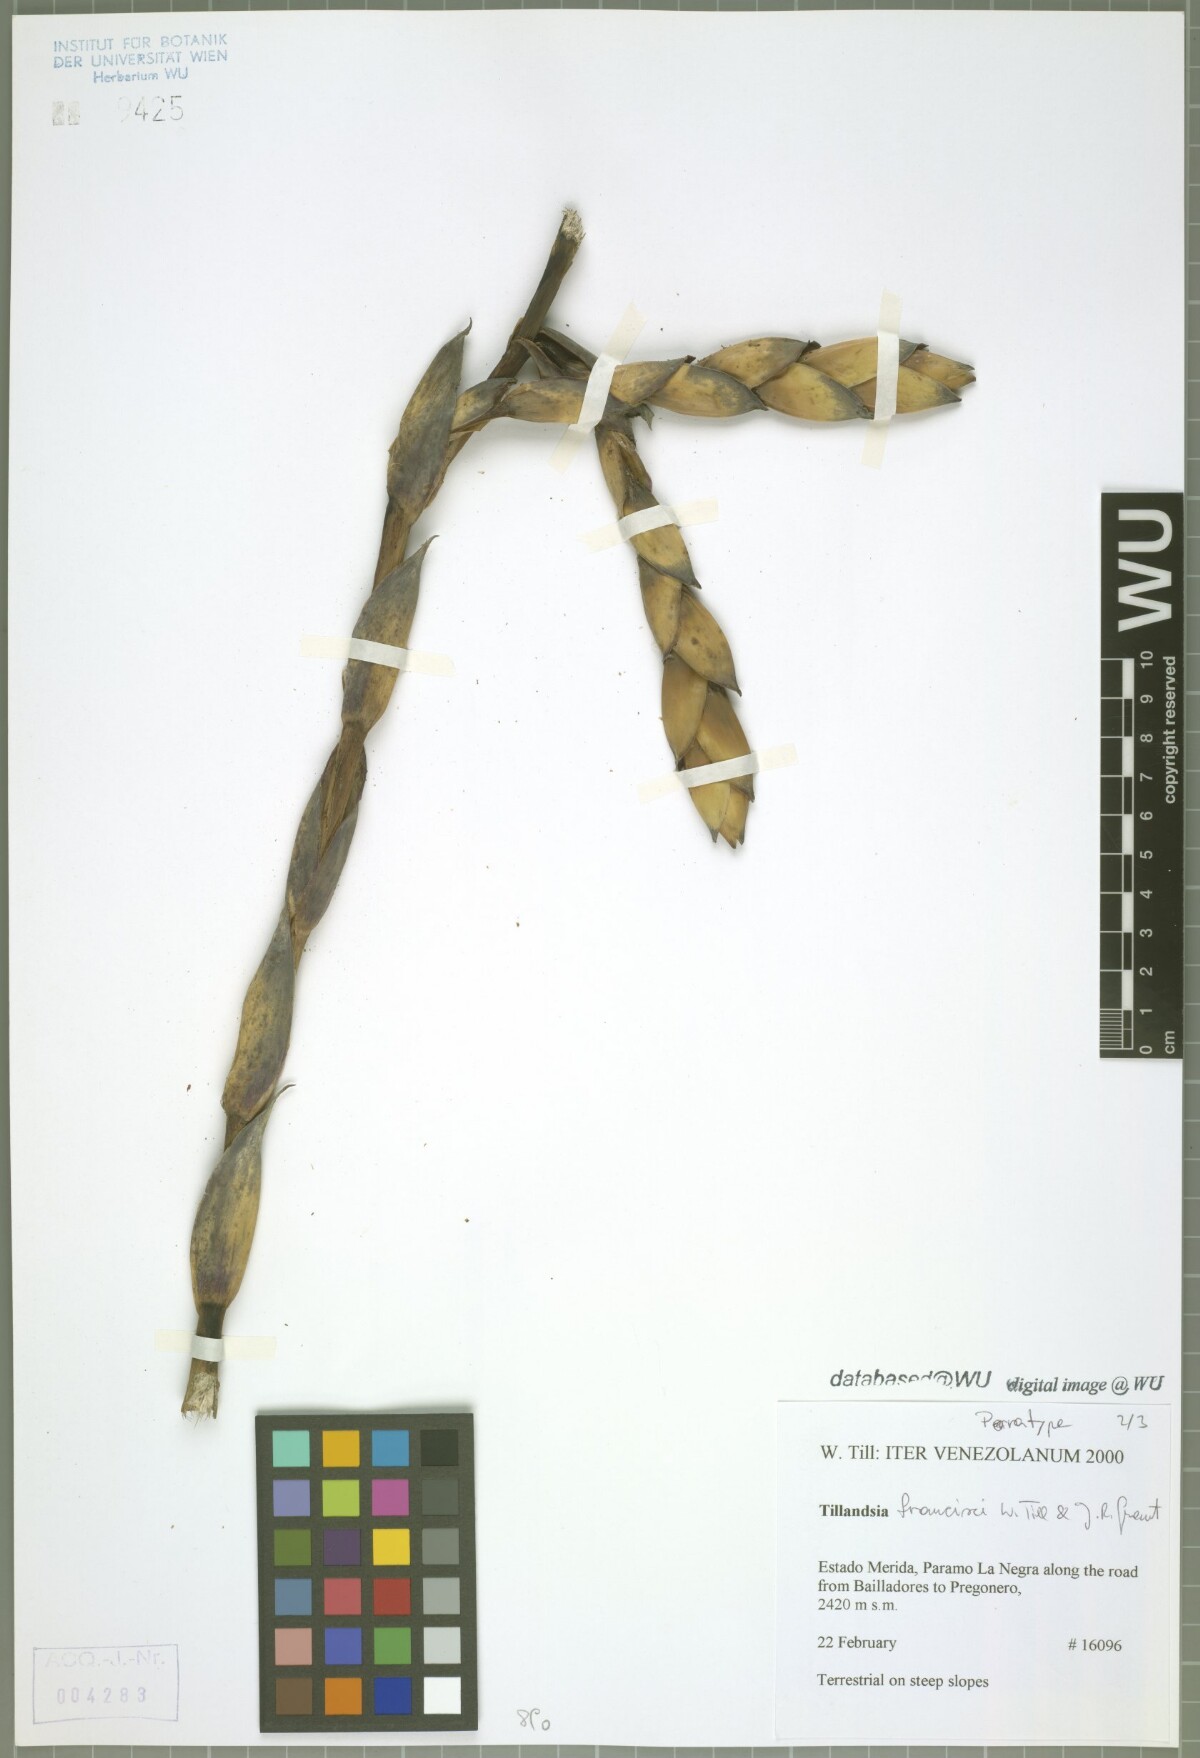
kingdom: Plantae
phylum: Tracheophyta
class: Liliopsida
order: Poales
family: Bromeliaceae
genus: Tillandsia
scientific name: Tillandsia francisci
